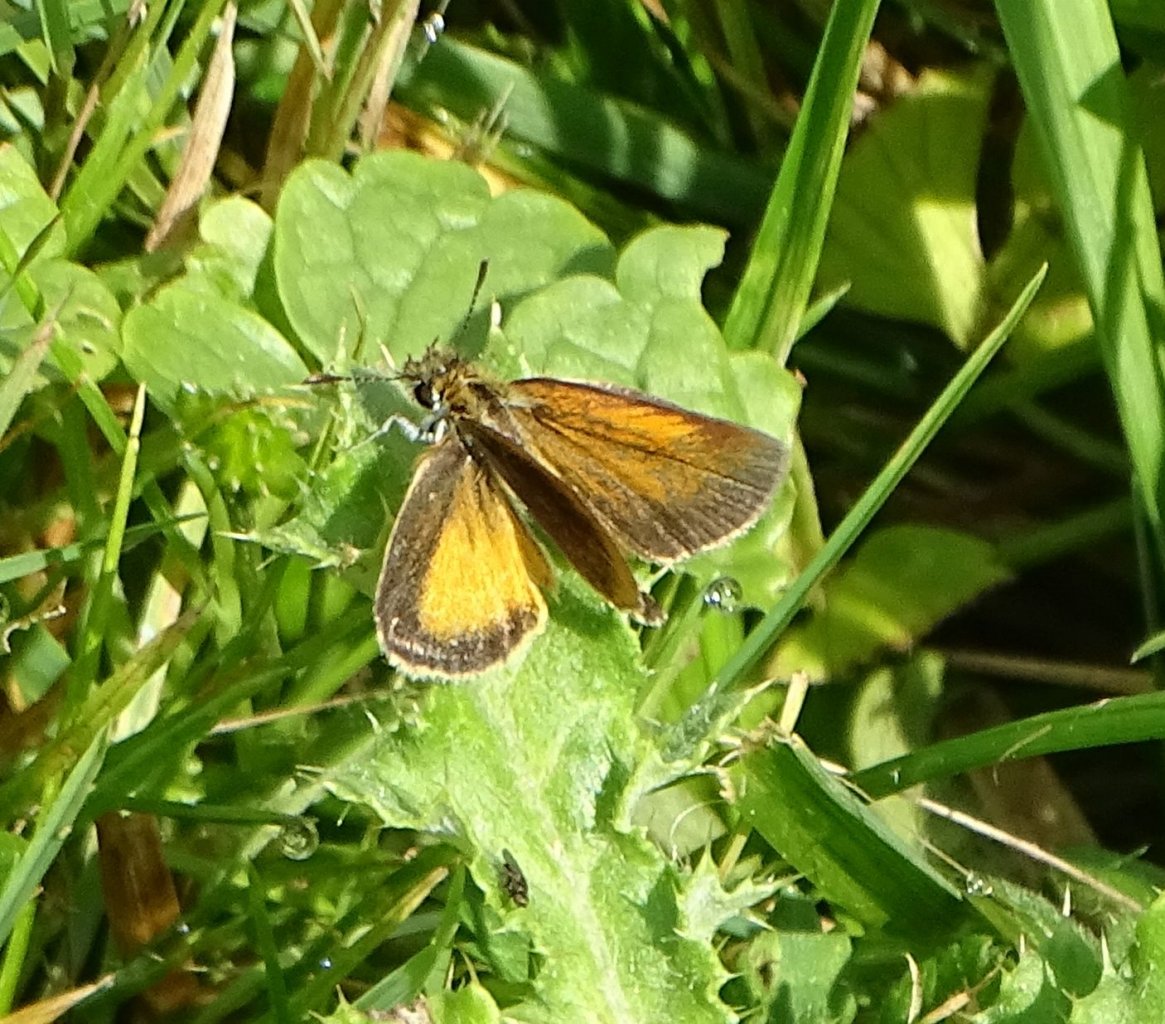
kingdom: Animalia
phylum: Arthropoda
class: Insecta
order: Lepidoptera
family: Hesperiidae
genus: Ancyloxypha
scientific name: Ancyloxypha numitor
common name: Least Skipper
